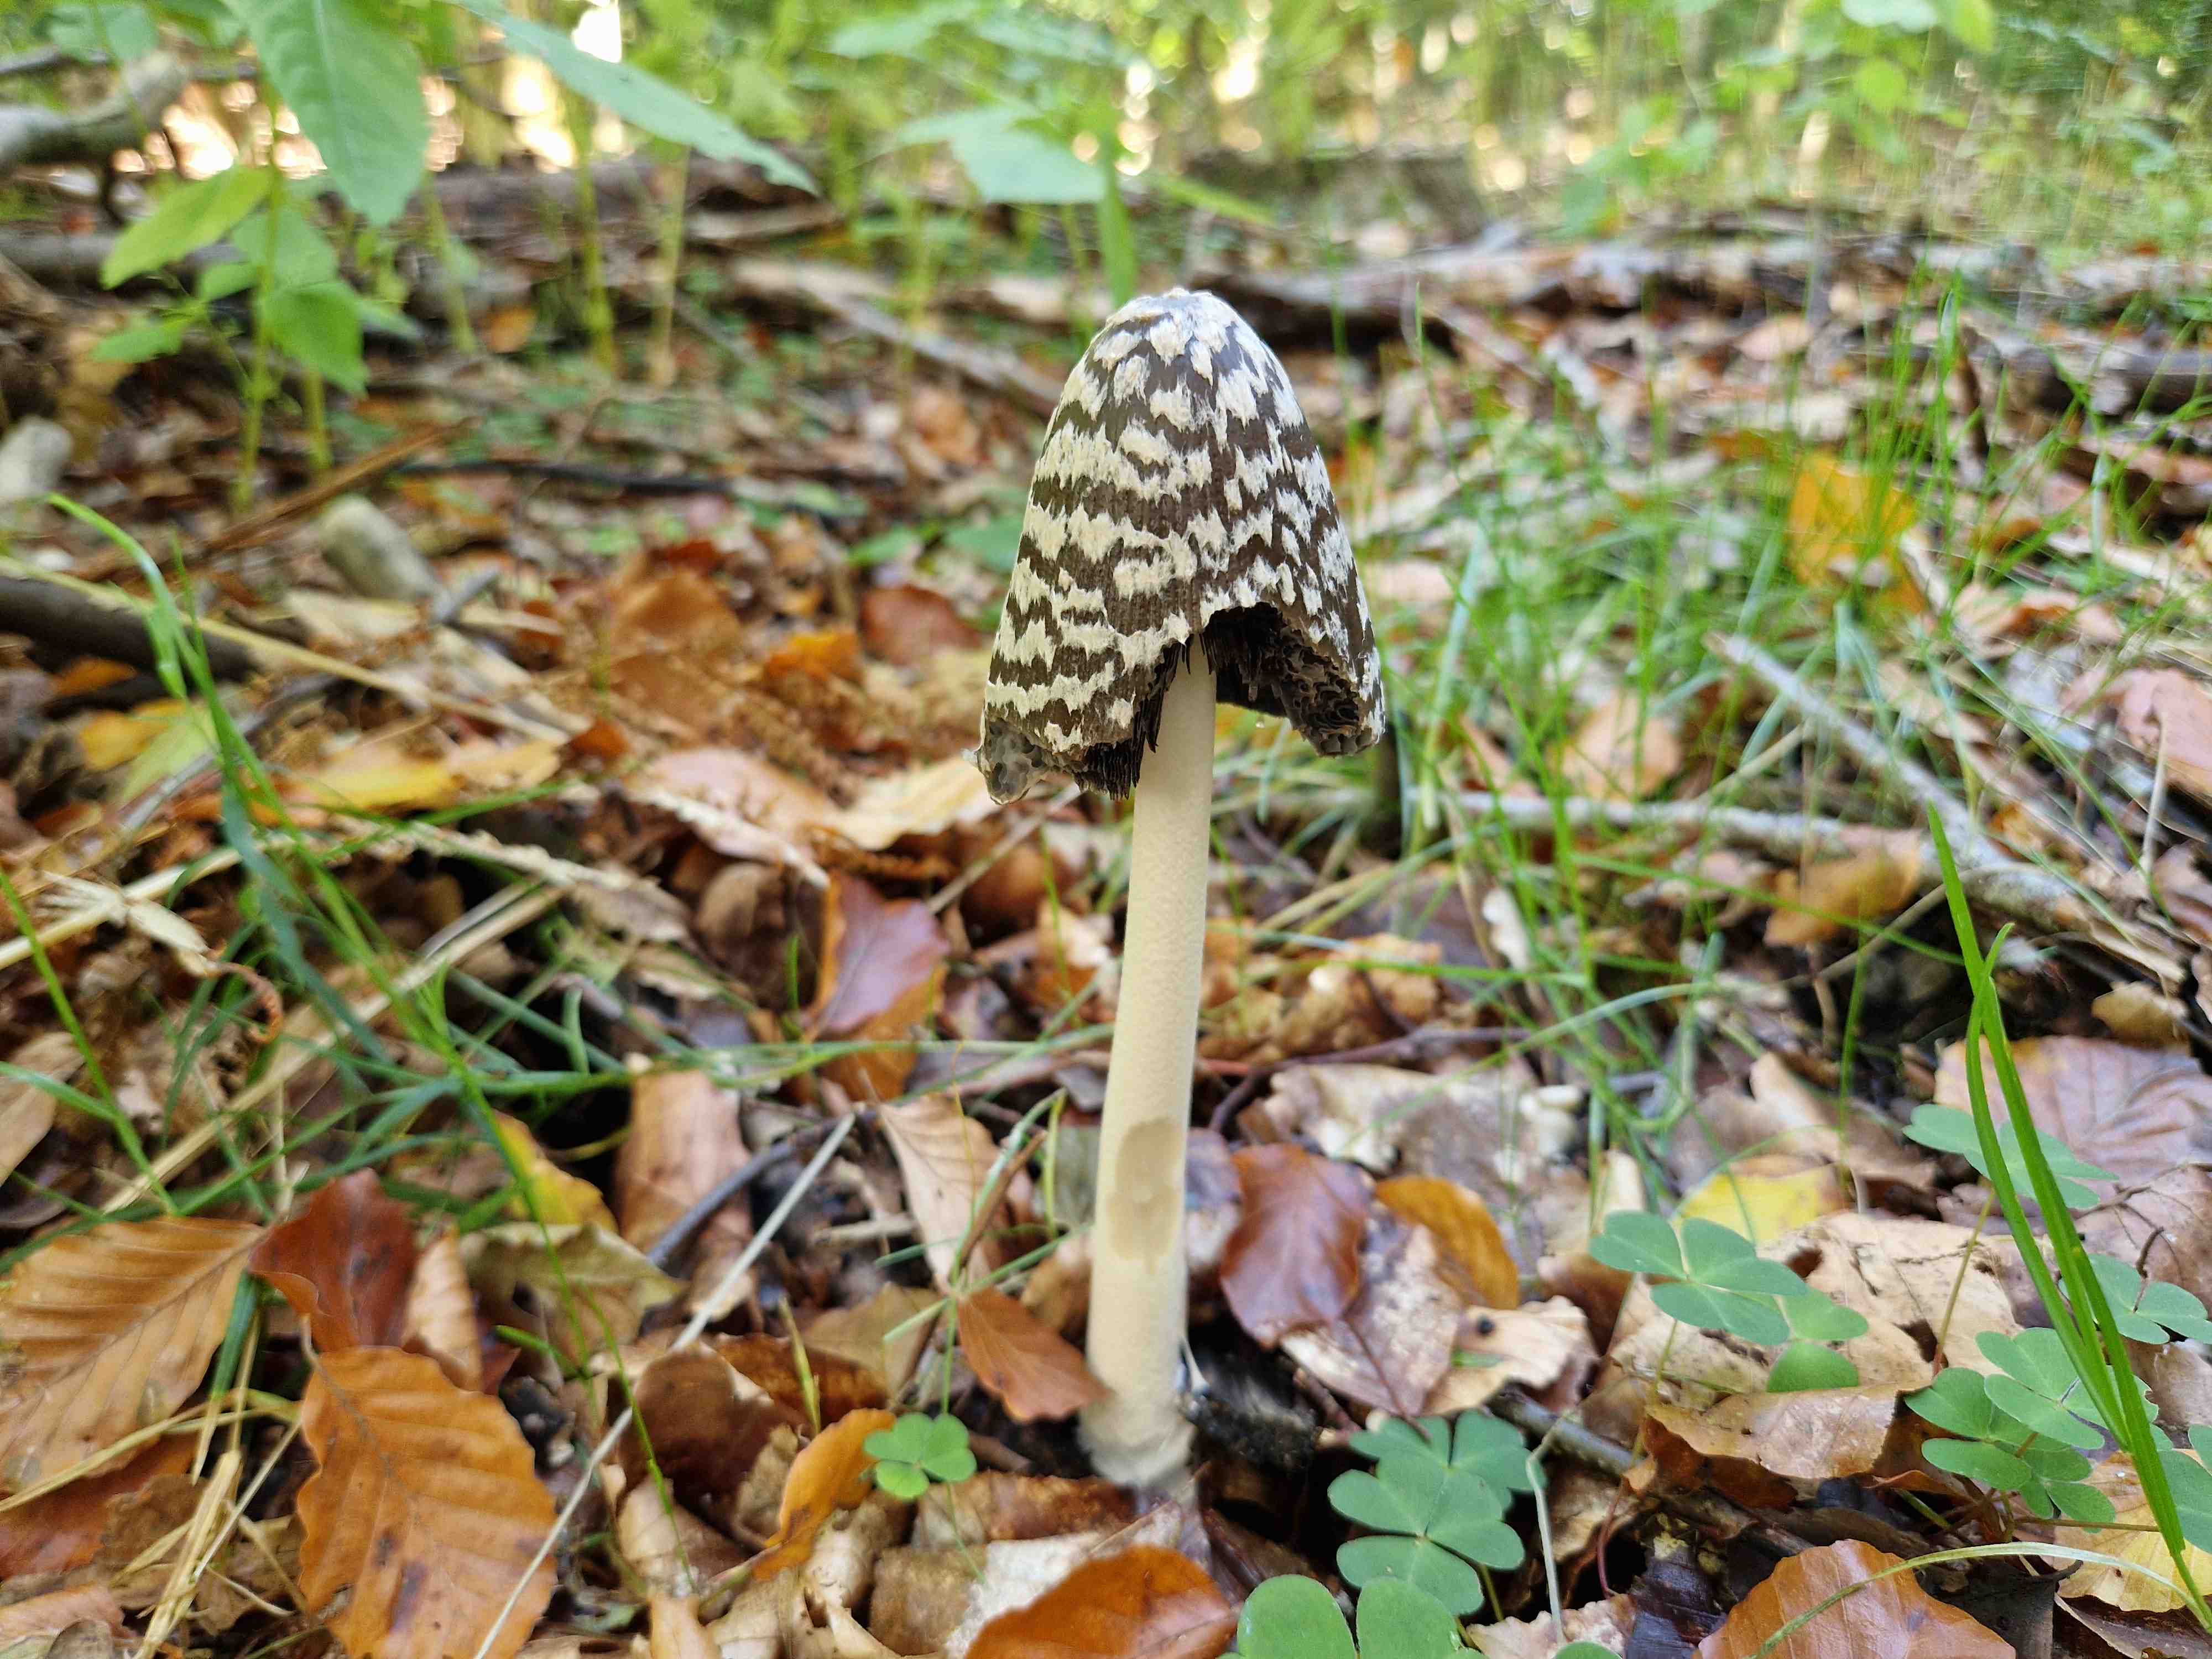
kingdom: Fungi
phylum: Basidiomycota
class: Agaricomycetes
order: Agaricales
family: Psathyrellaceae
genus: Coprinopsis
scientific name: Coprinopsis picacea
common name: skade-blækhat
